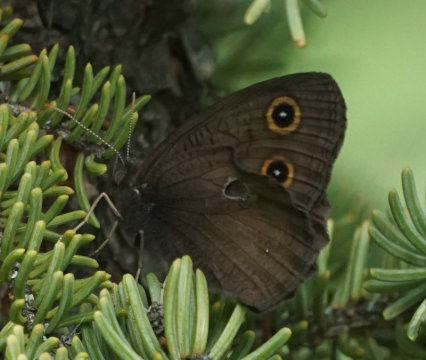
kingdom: Animalia
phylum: Arthropoda
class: Insecta
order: Lepidoptera
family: Nymphalidae
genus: Cercyonis
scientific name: Cercyonis pegala
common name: Common Wood-Nymph
